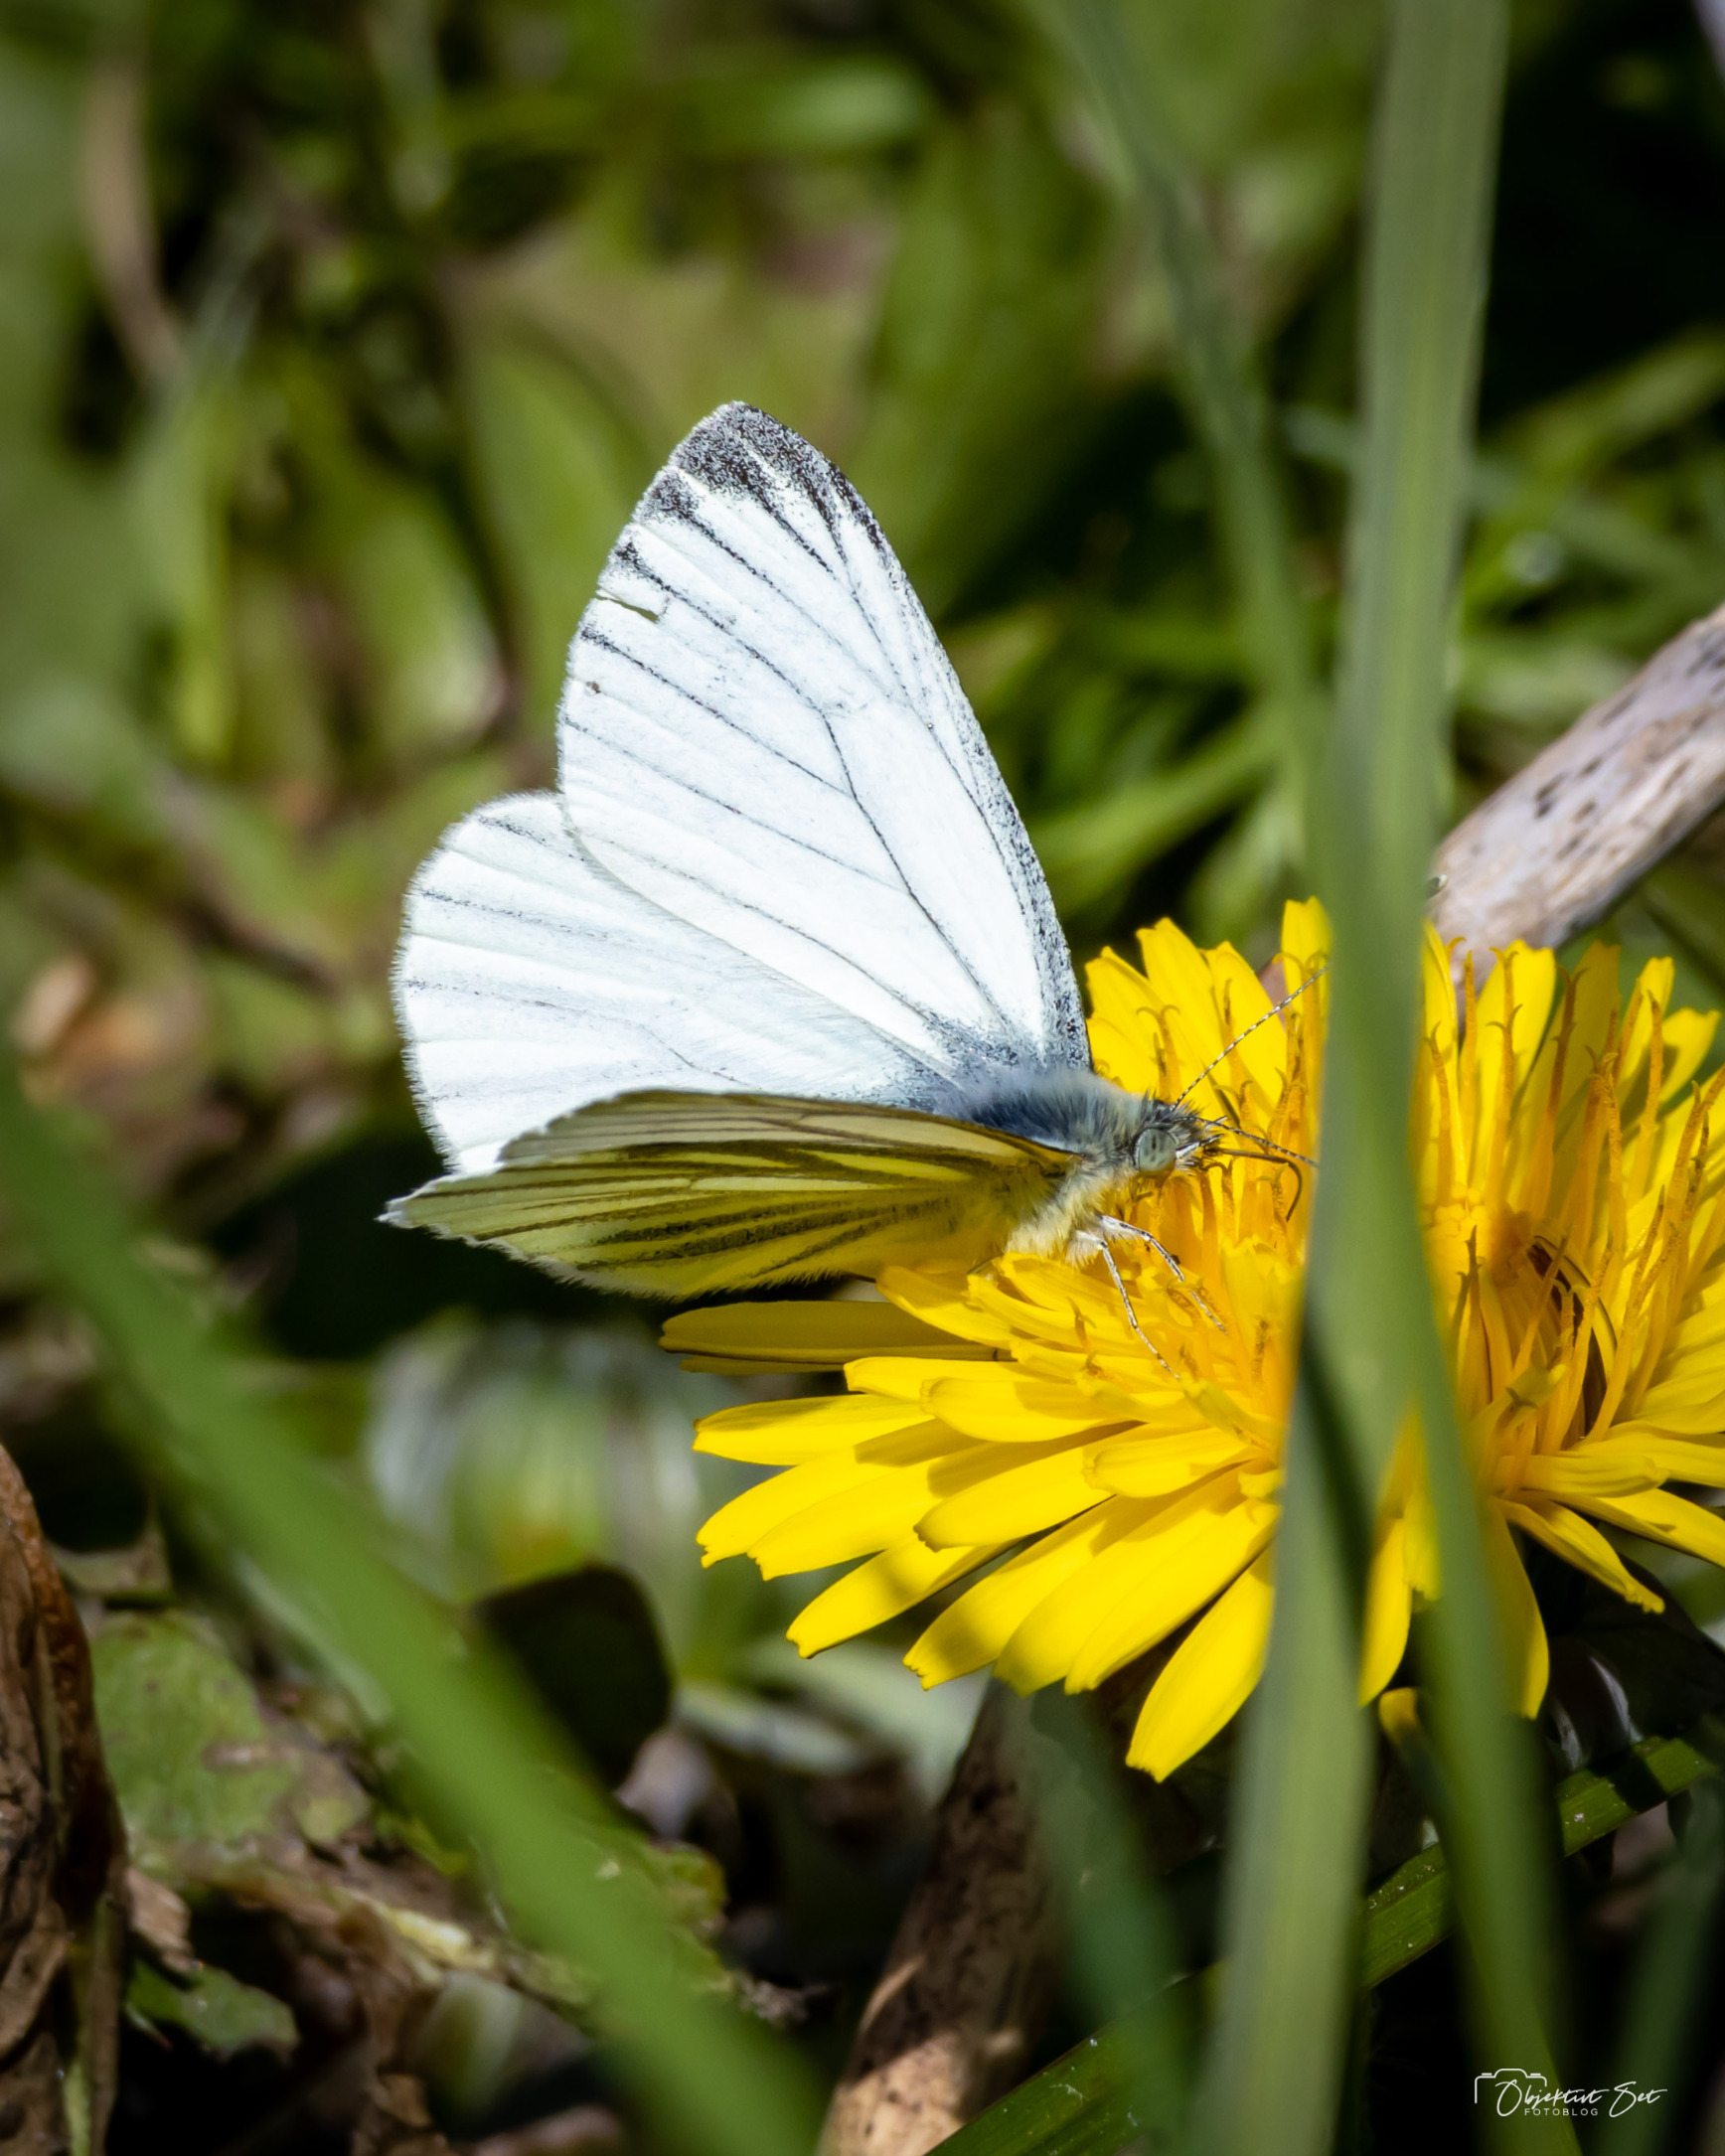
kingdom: Animalia
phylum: Arthropoda
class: Insecta
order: Lepidoptera
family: Pieridae
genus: Pieris
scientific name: Pieris napi
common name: Grønåret kålsommerfugl
